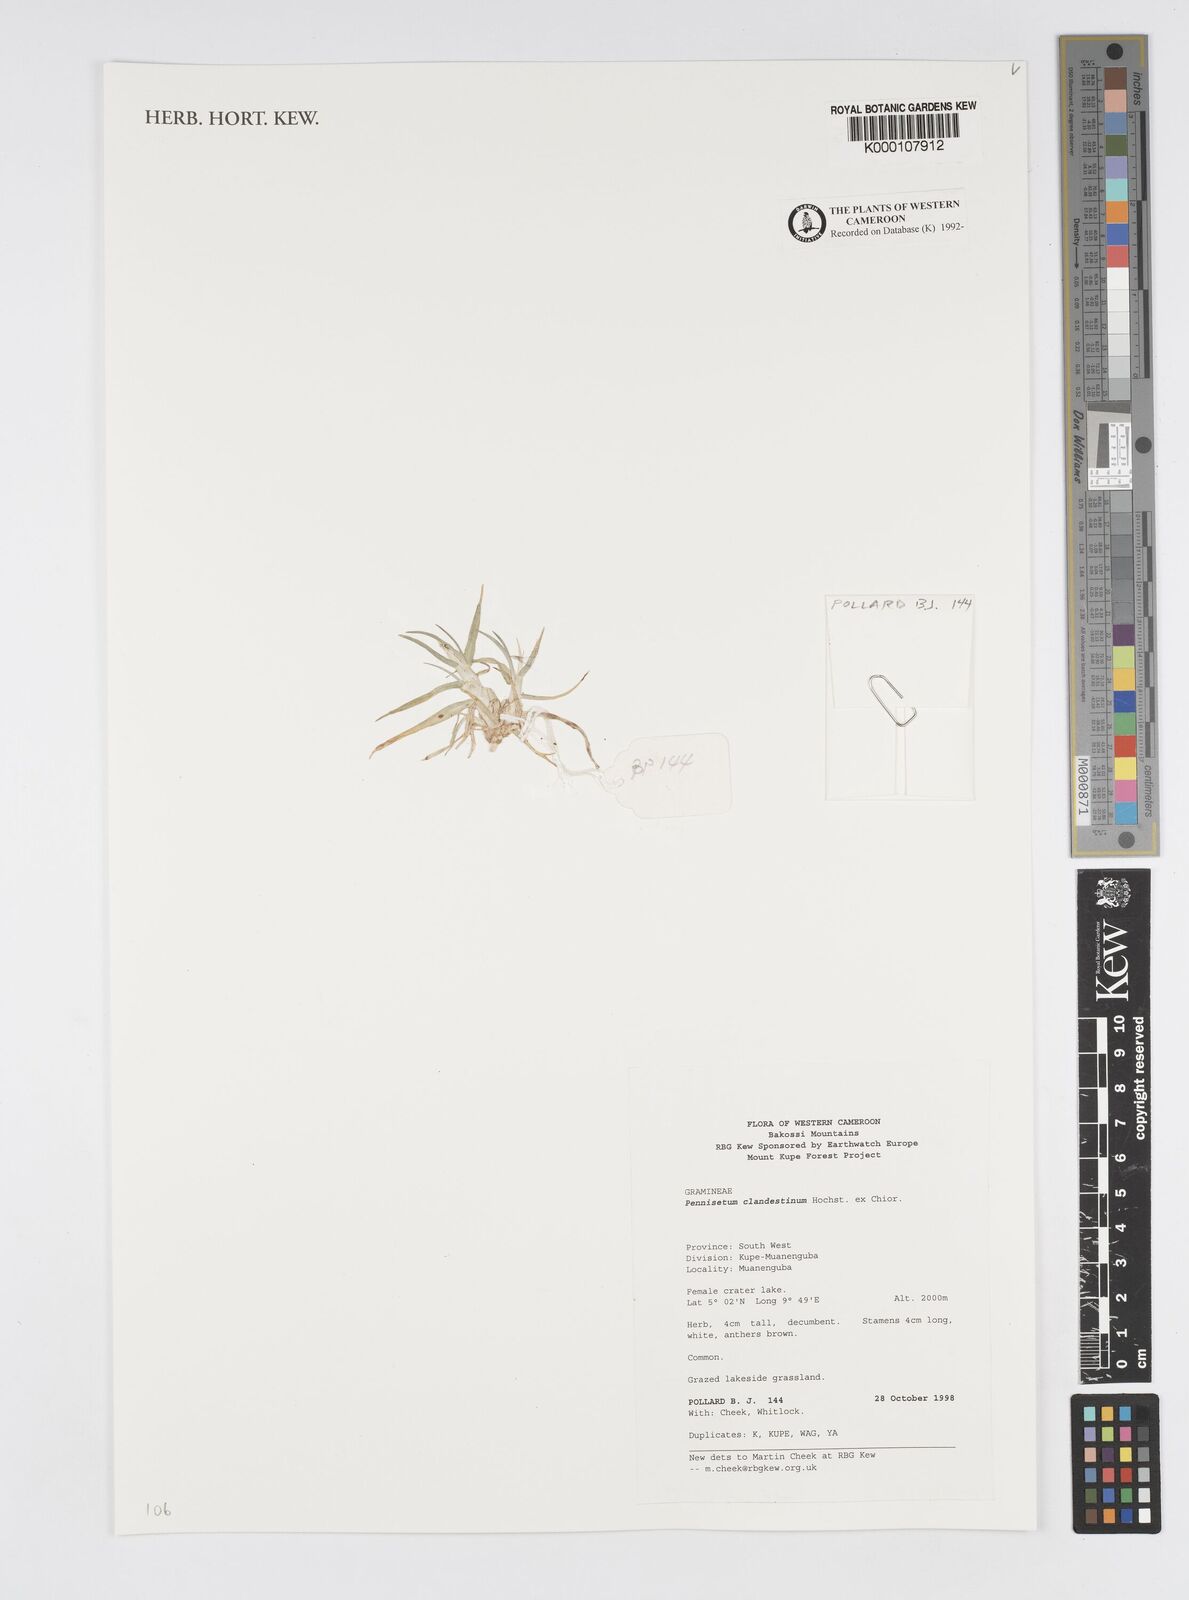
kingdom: Plantae
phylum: Tracheophyta
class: Liliopsida
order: Poales
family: Poaceae
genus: Cenchrus
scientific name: Cenchrus clandestinus
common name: Kikuyugrass
